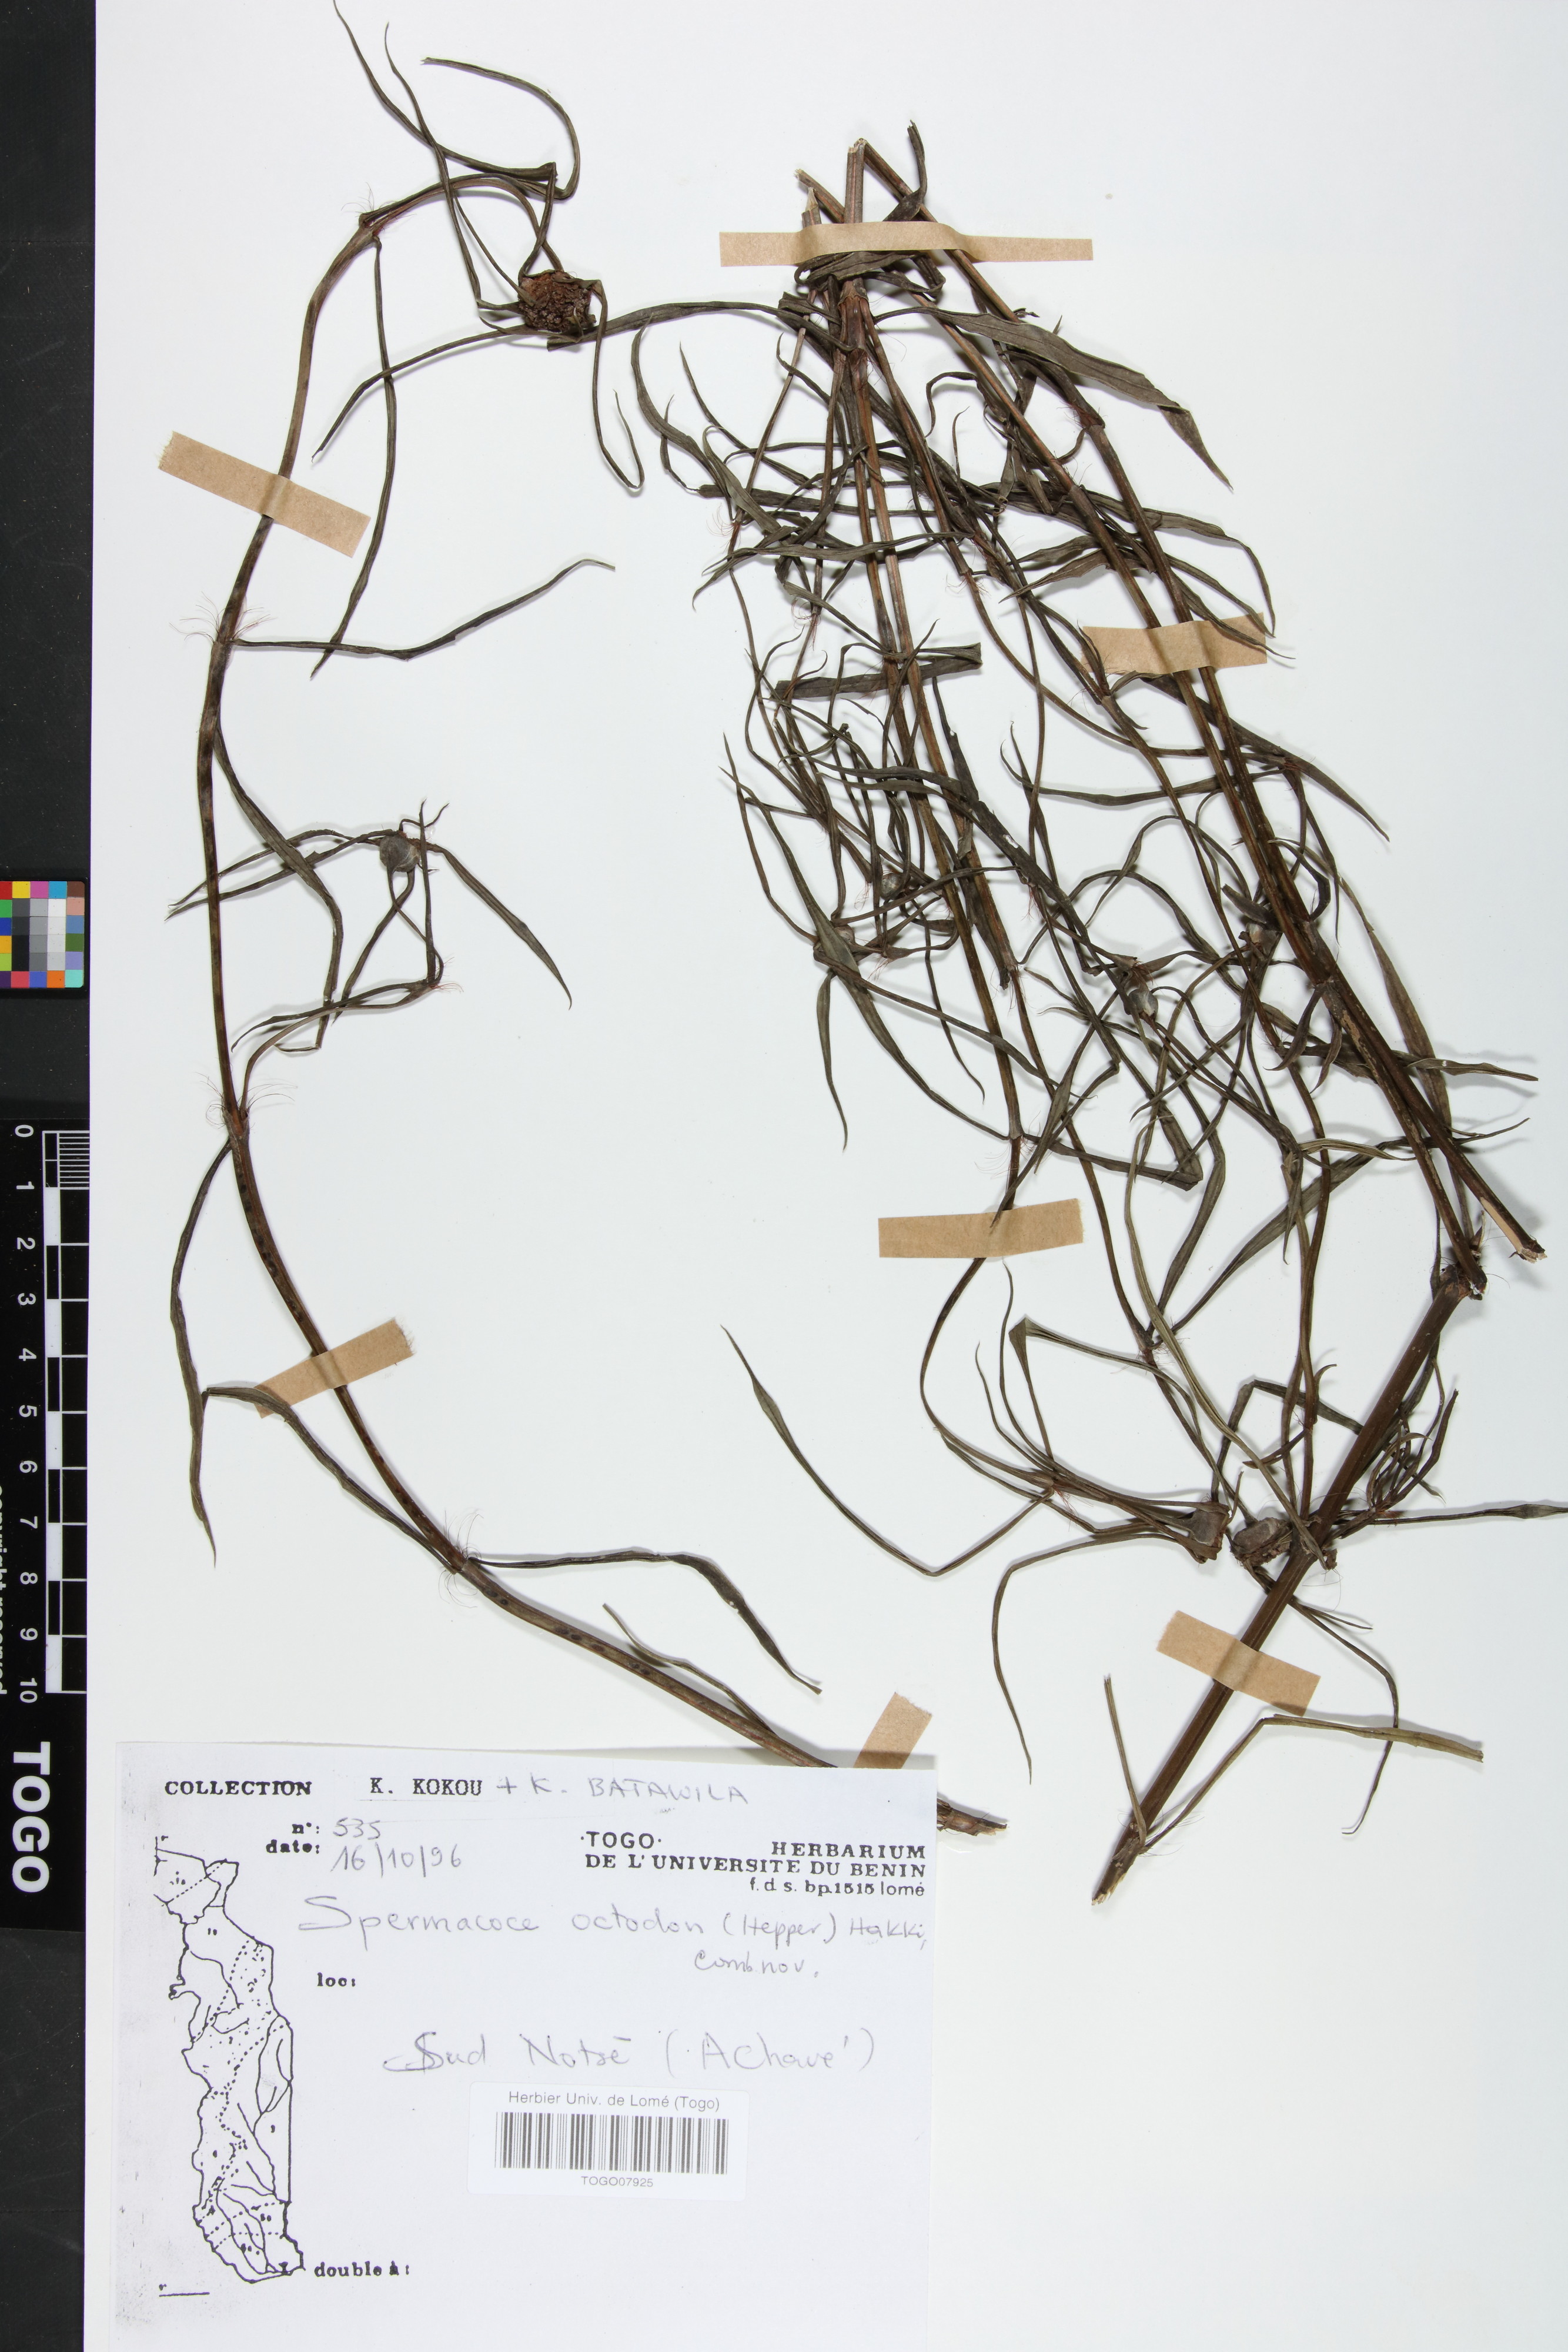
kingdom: Plantae
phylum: Tracheophyta
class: Magnoliopsida
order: Gentianales
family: Rubiaceae
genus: Spermacoce
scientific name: Spermacoce octodon
